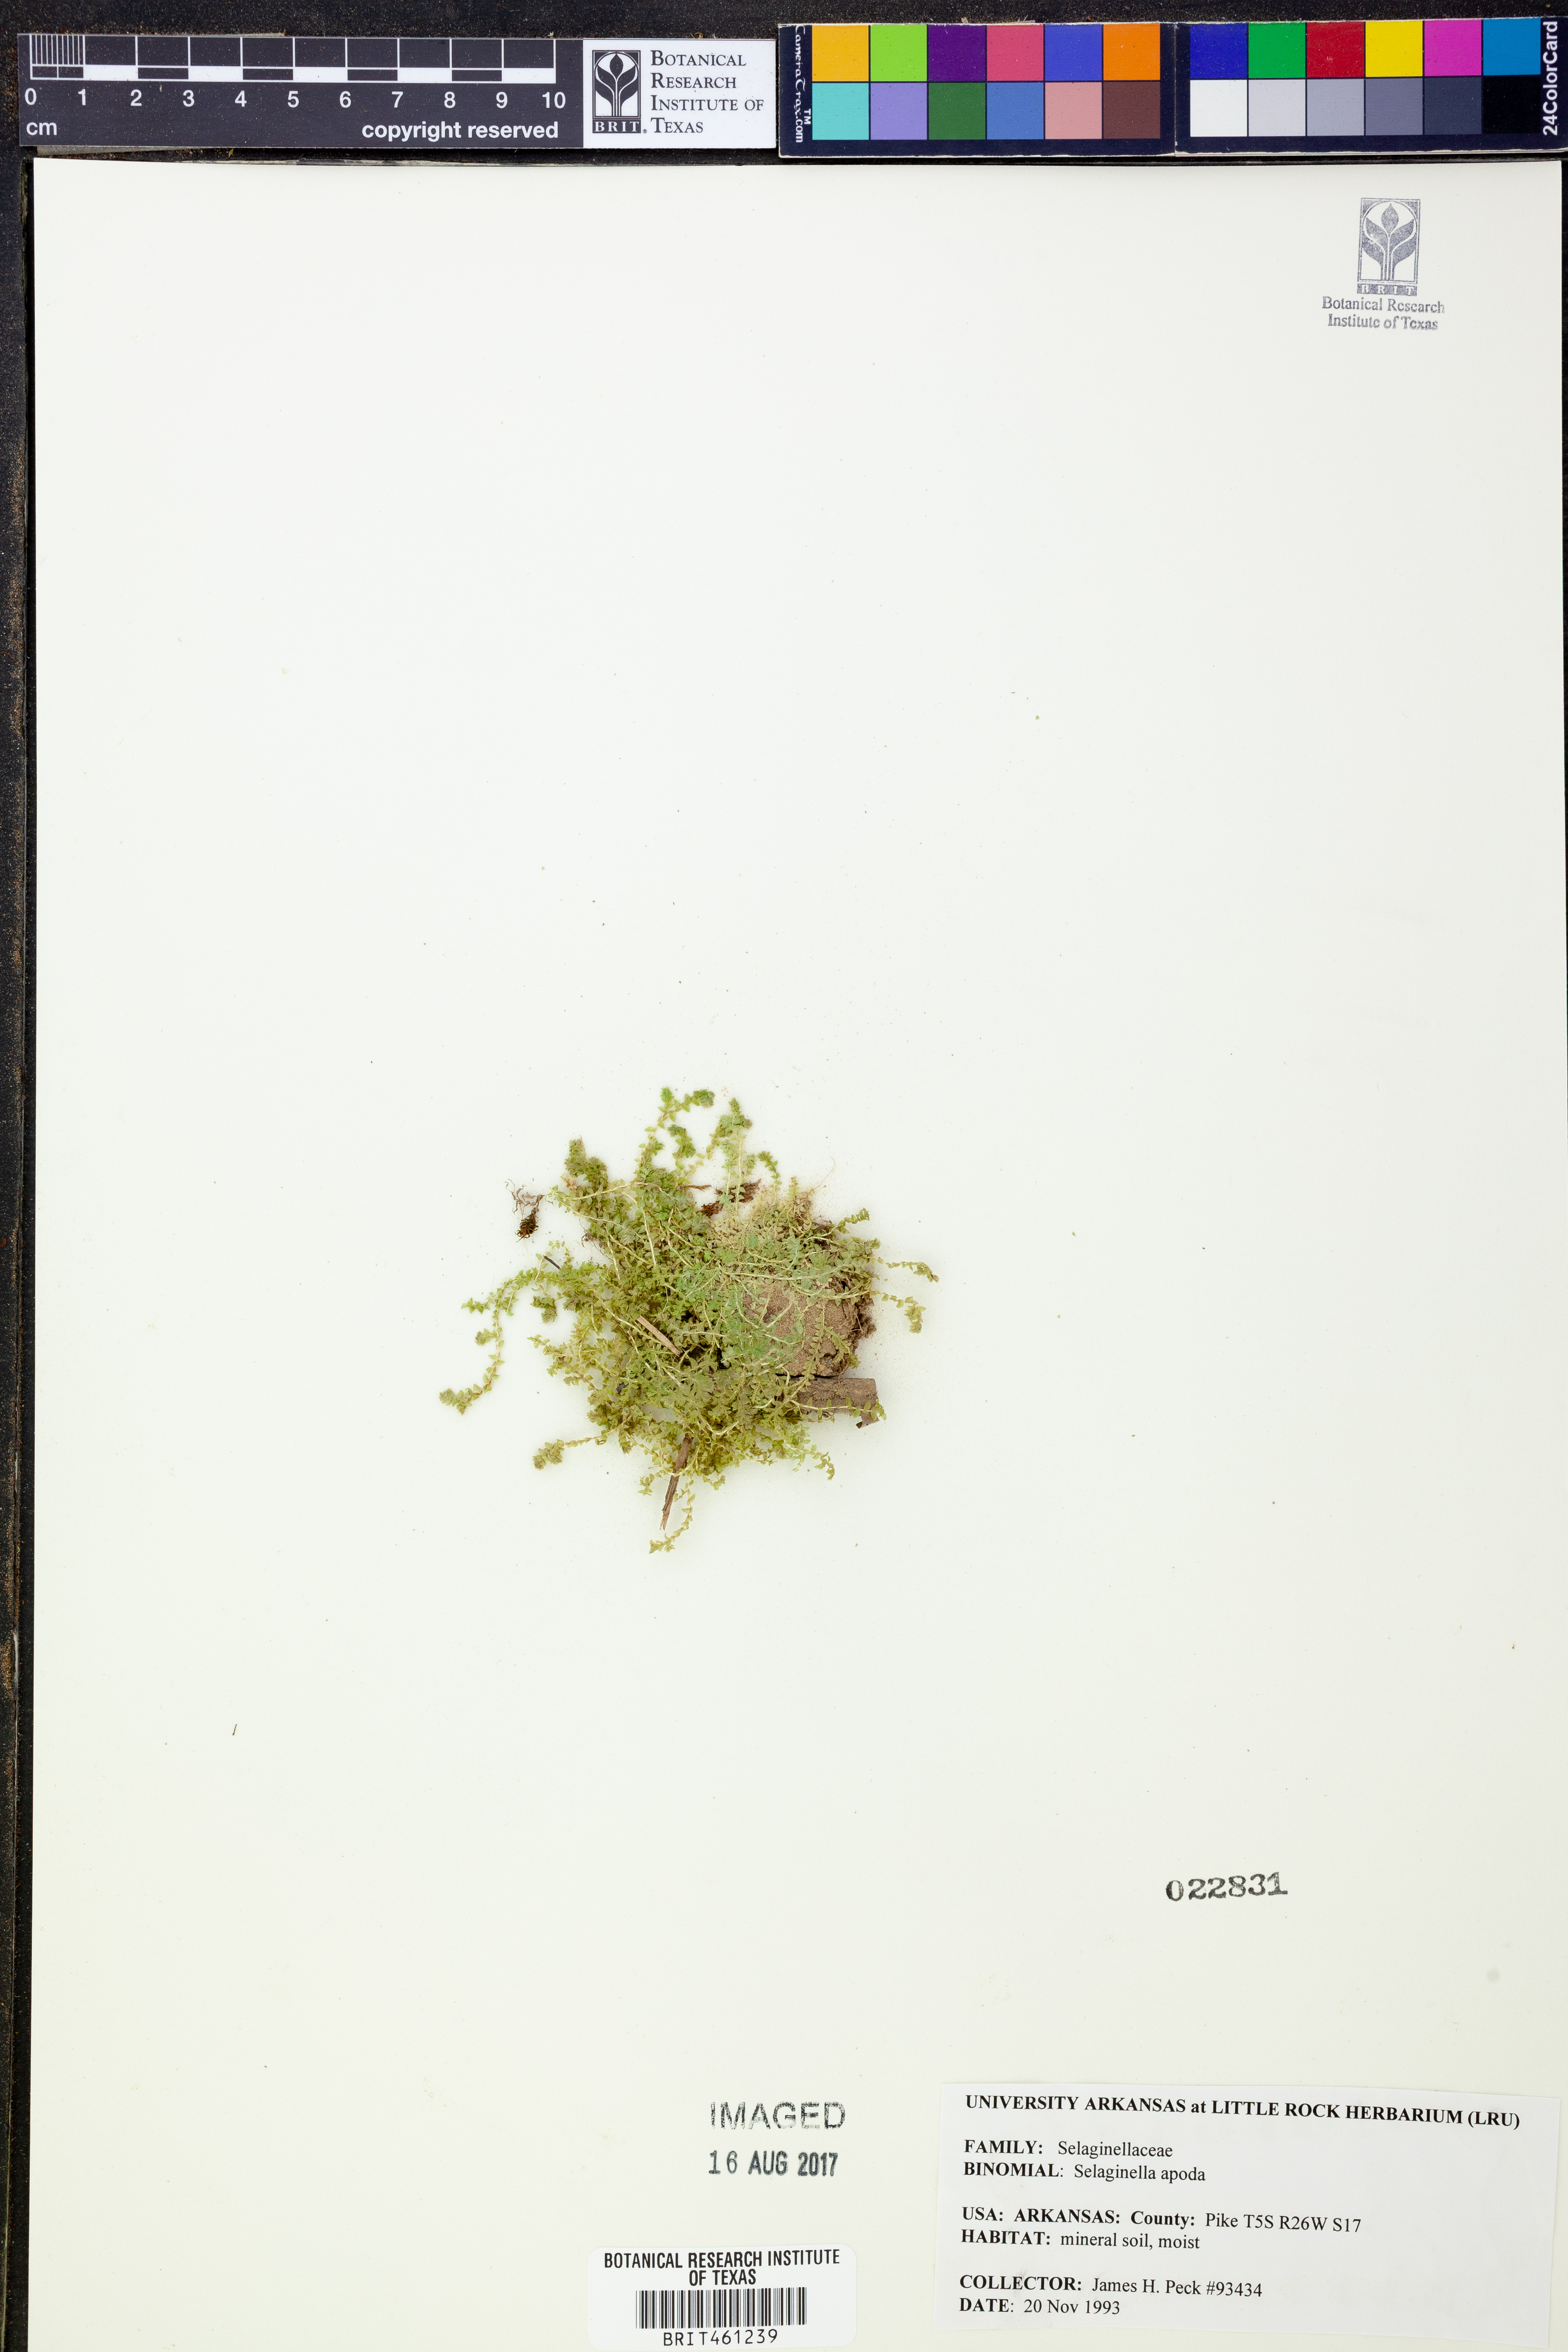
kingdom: Plantae
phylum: Tracheophyta
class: Lycopodiopsida
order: Selaginellales
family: Selaginellaceae
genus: Selaginella
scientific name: Selaginella apoda
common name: Creeping spikemoss
